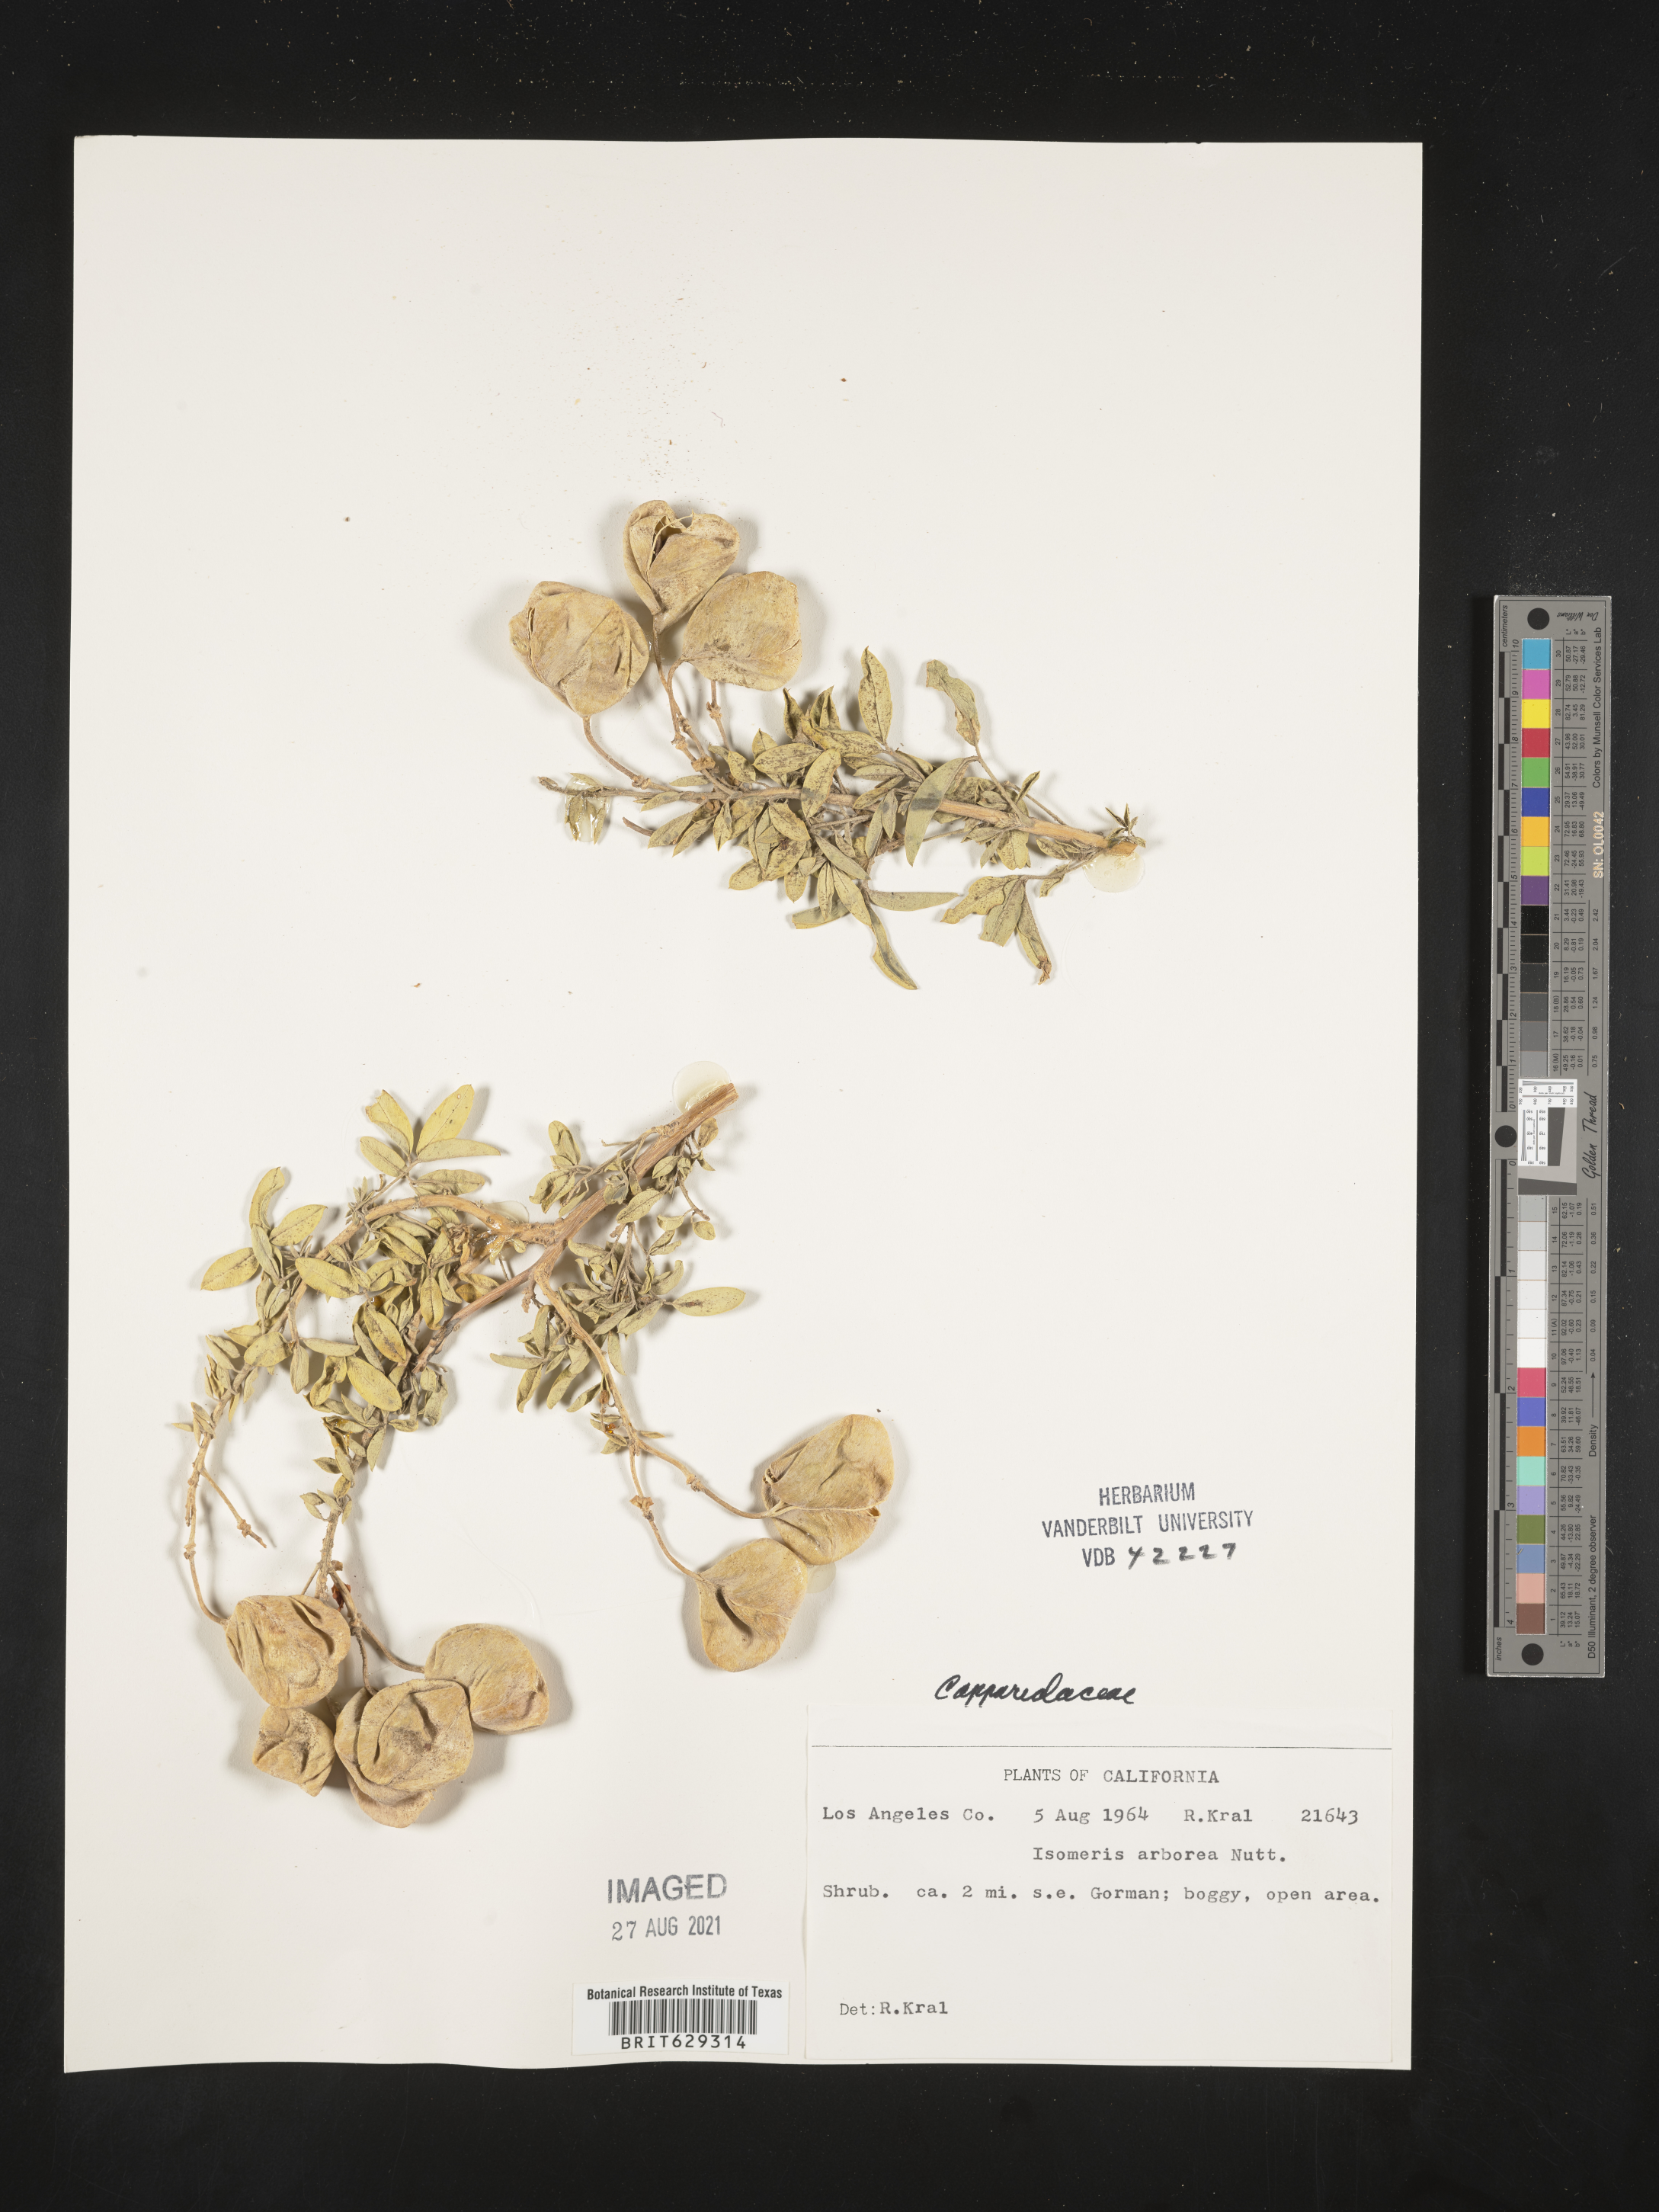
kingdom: Plantae
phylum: Tracheophyta
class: Magnoliopsida
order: Brassicales
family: Cleomaceae
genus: Cleomella
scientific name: Cleomella arborea
